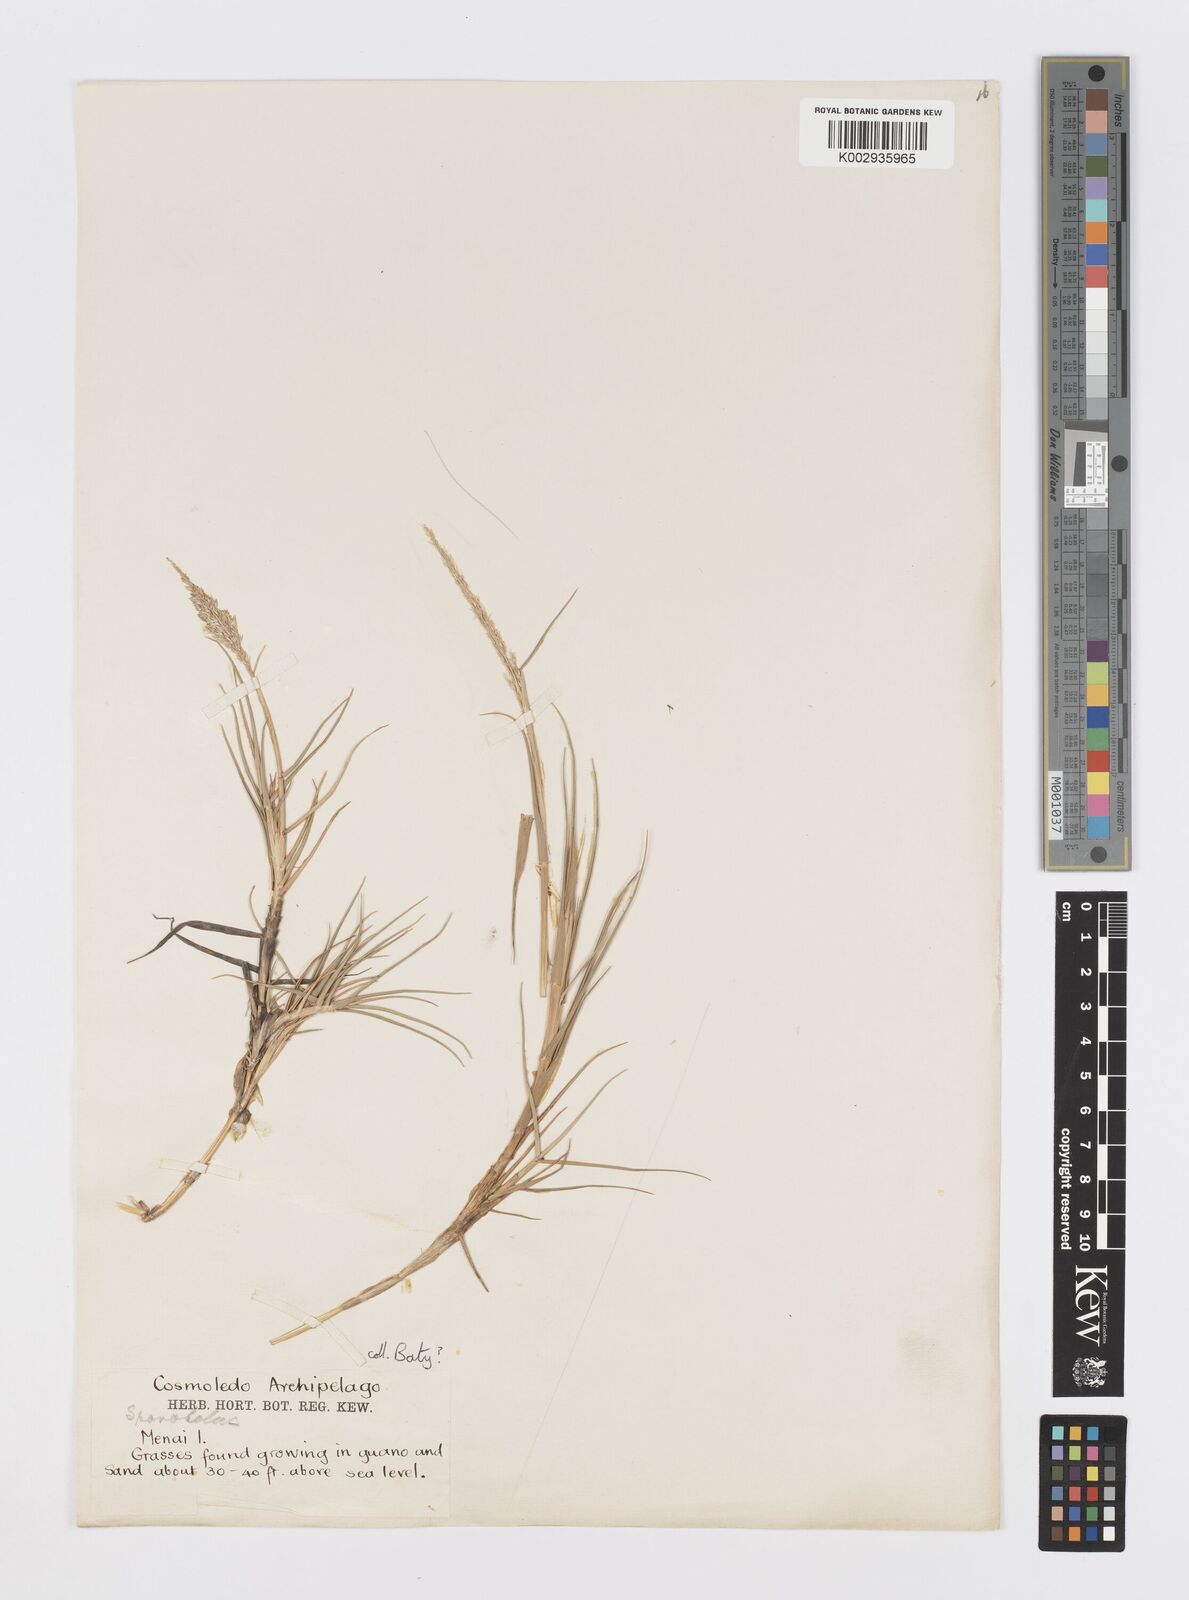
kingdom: Plantae
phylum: Tracheophyta
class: Liliopsida
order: Poales
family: Poaceae
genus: Sporobolus
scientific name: Sporobolus virginicus
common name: Beach dropseed
